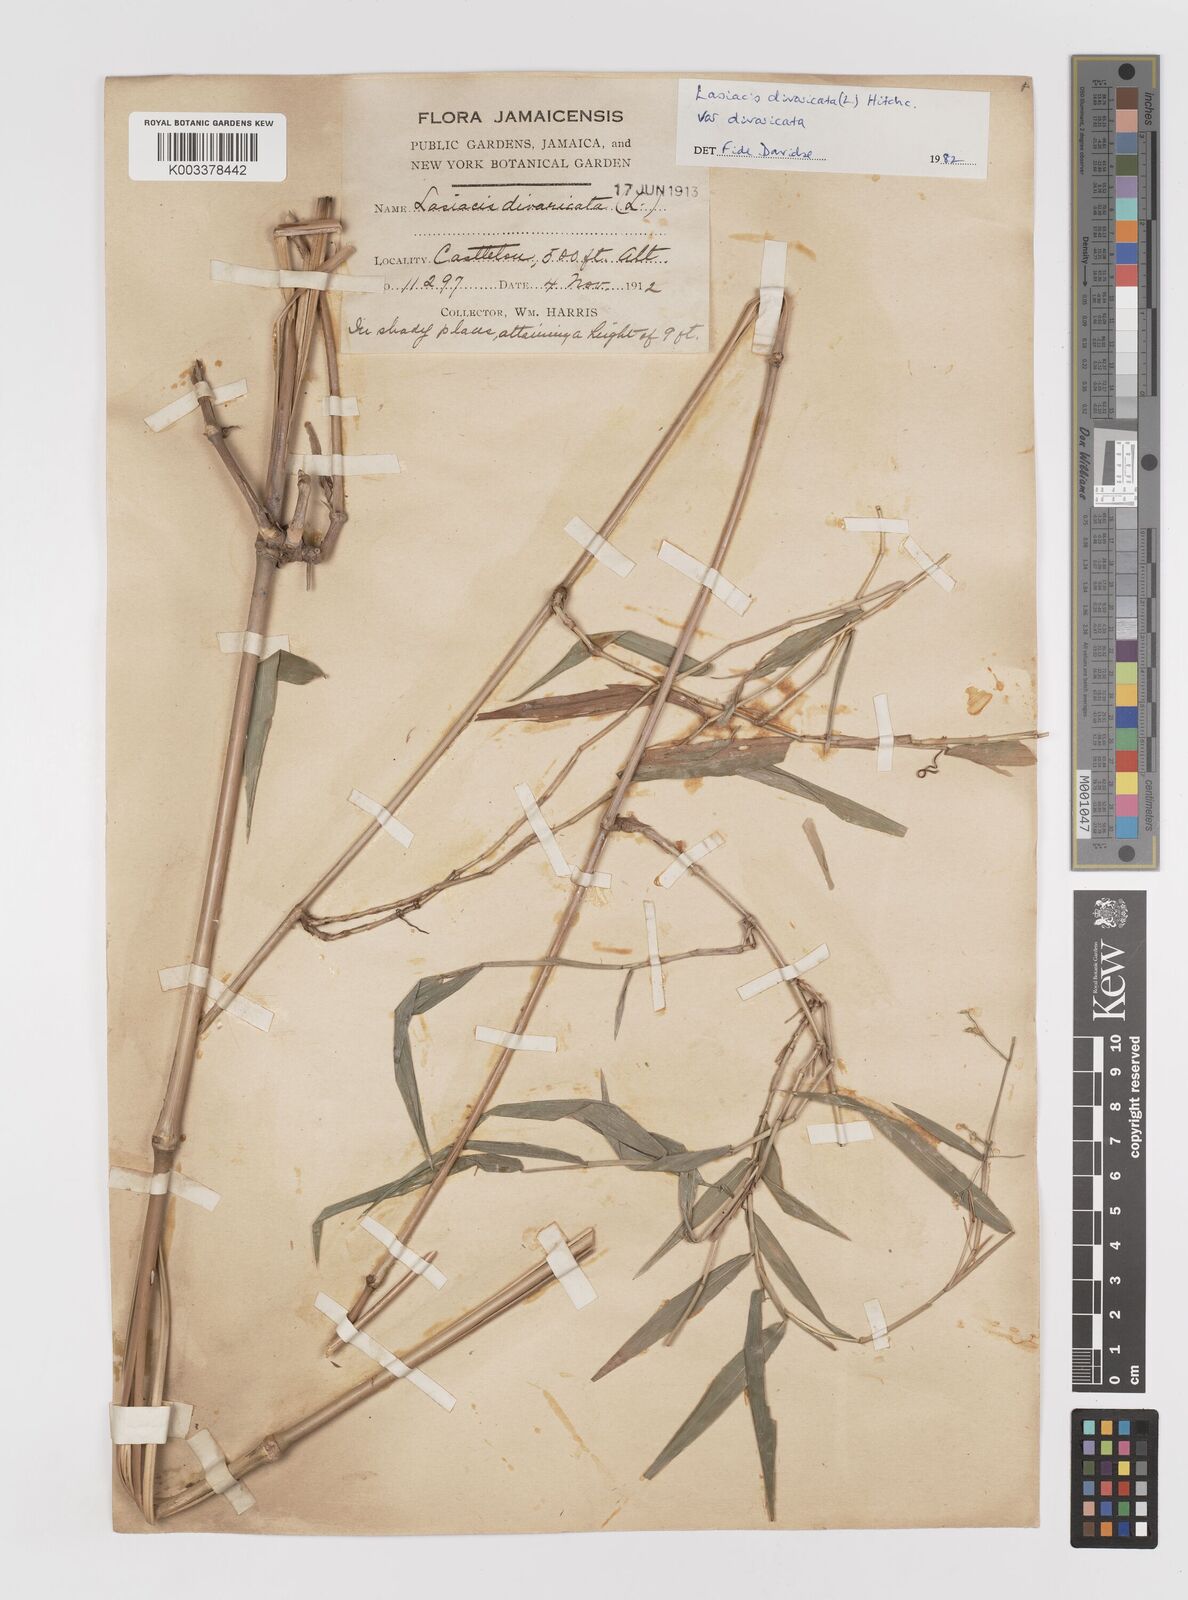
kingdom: Plantae
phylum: Tracheophyta
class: Liliopsida
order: Poales
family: Poaceae
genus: Lasiacis
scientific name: Lasiacis divaricata
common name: Smallcane
